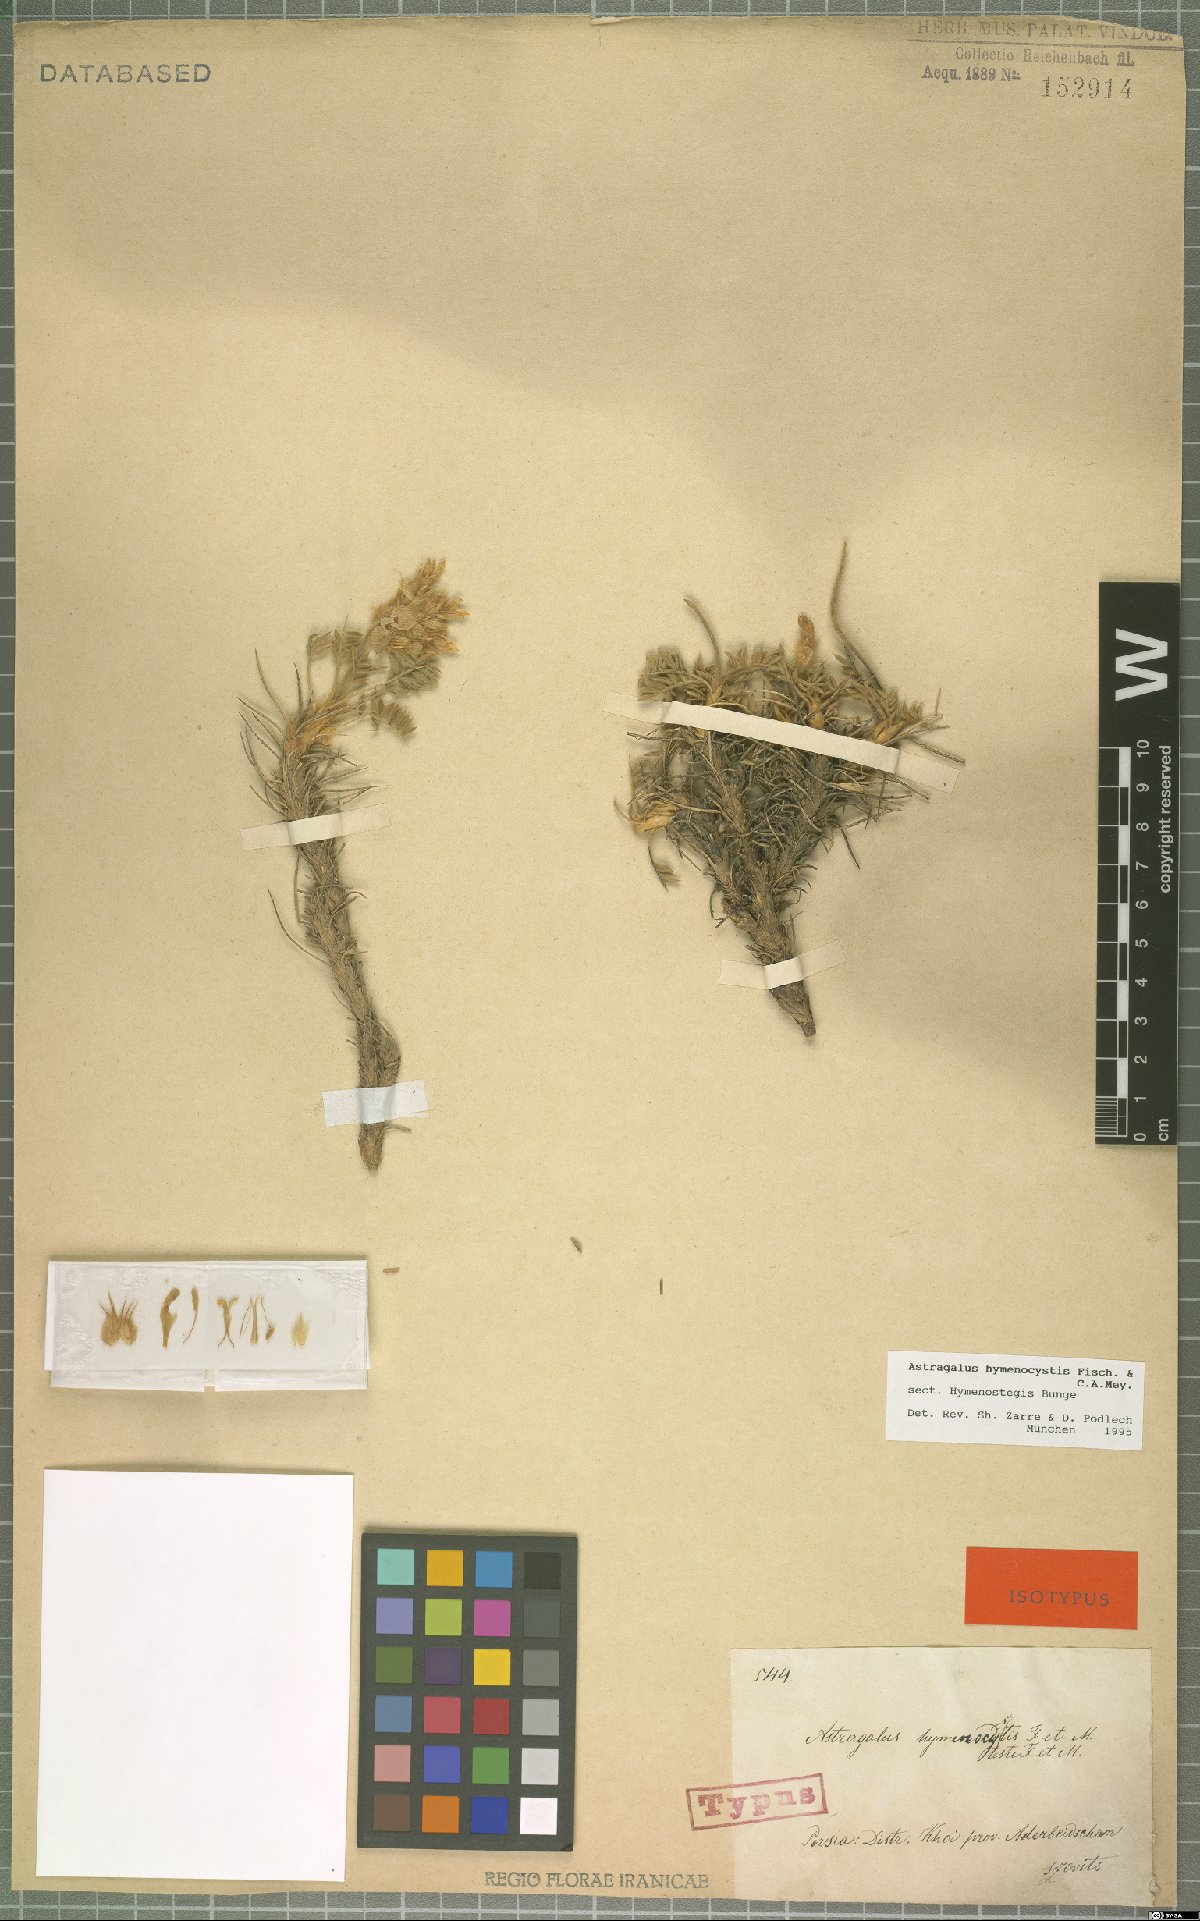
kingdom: Plantae
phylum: Tracheophyta
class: Magnoliopsida
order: Fabales
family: Fabaceae
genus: Astragalus
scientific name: Astragalus hymenocystis
